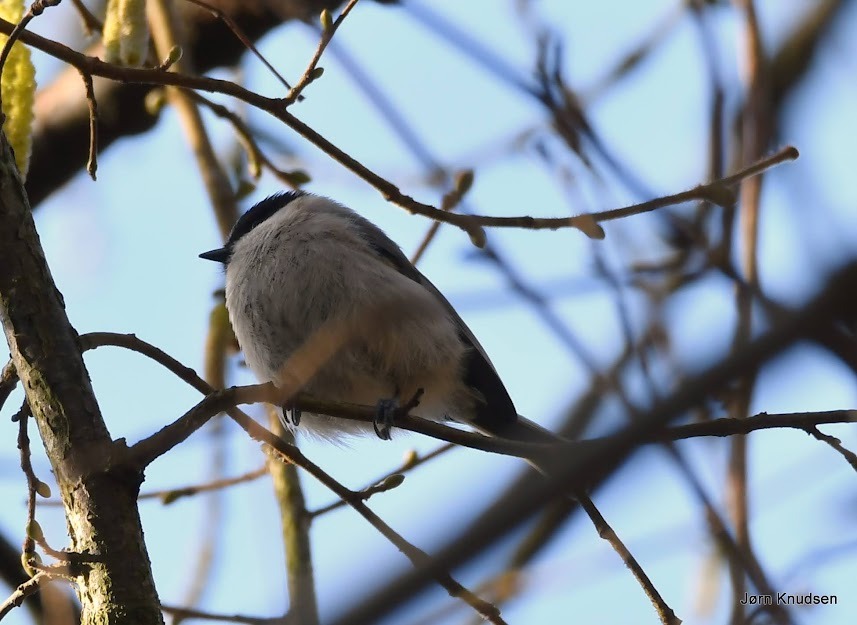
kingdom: Animalia
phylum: Chordata
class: Aves
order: Passeriformes
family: Paridae
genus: Poecile
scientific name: Poecile palustris
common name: Sumpmejse
